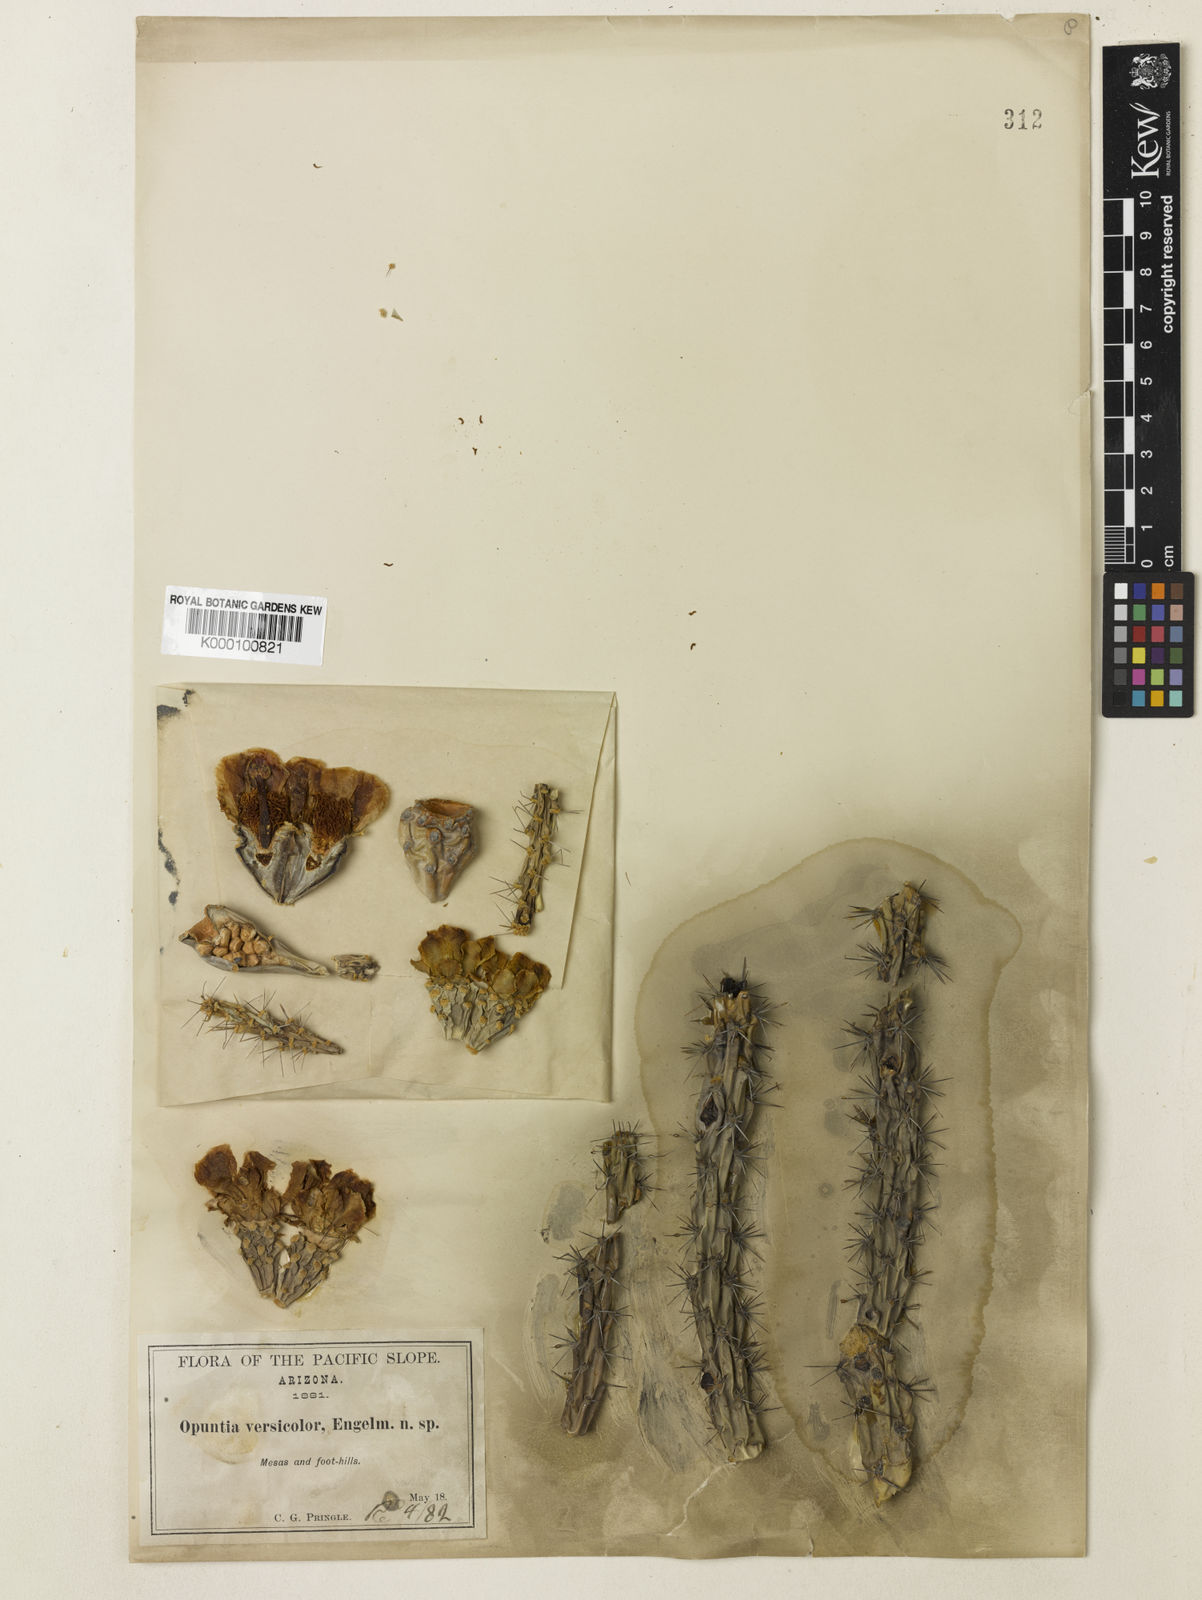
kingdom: Plantae
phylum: Tracheophyta
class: Magnoliopsida
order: Caryophyllales
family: Cactaceae
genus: Cylindropuntia
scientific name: Cylindropuntia thurberi
